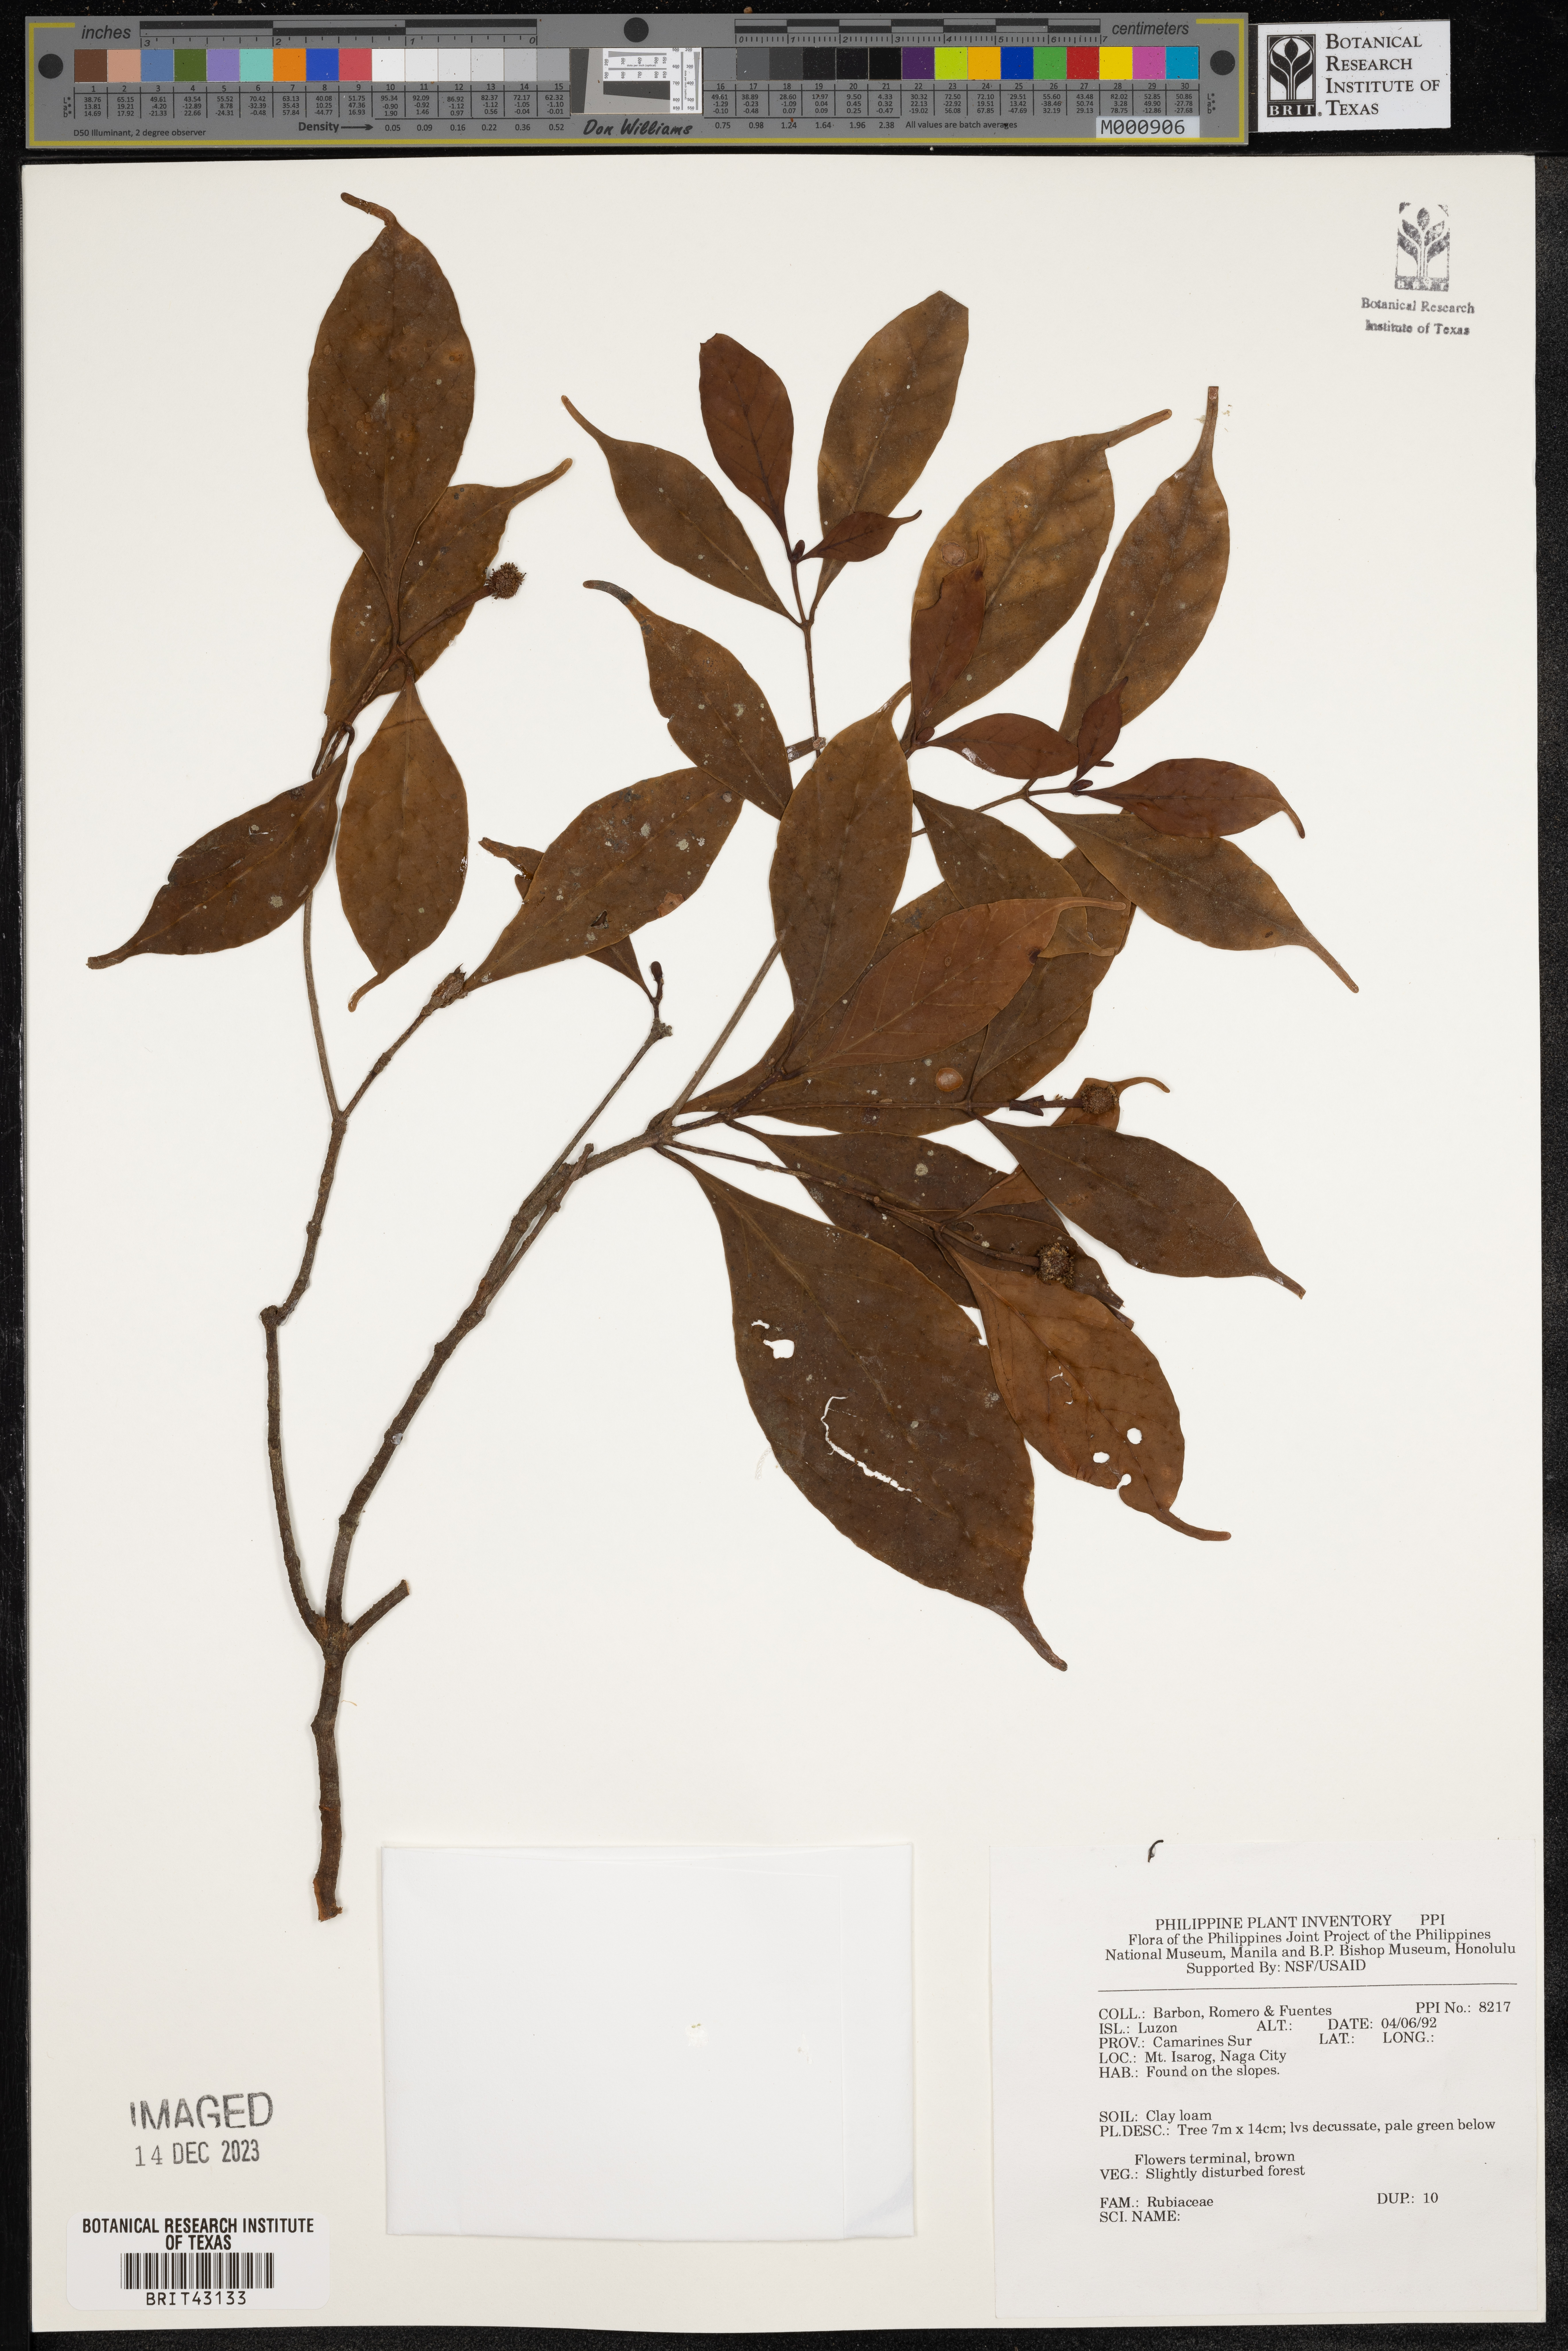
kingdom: Plantae
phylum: Tracheophyta
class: Magnoliopsida
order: Gentianales
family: Rubiaceae
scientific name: Rubiaceae
